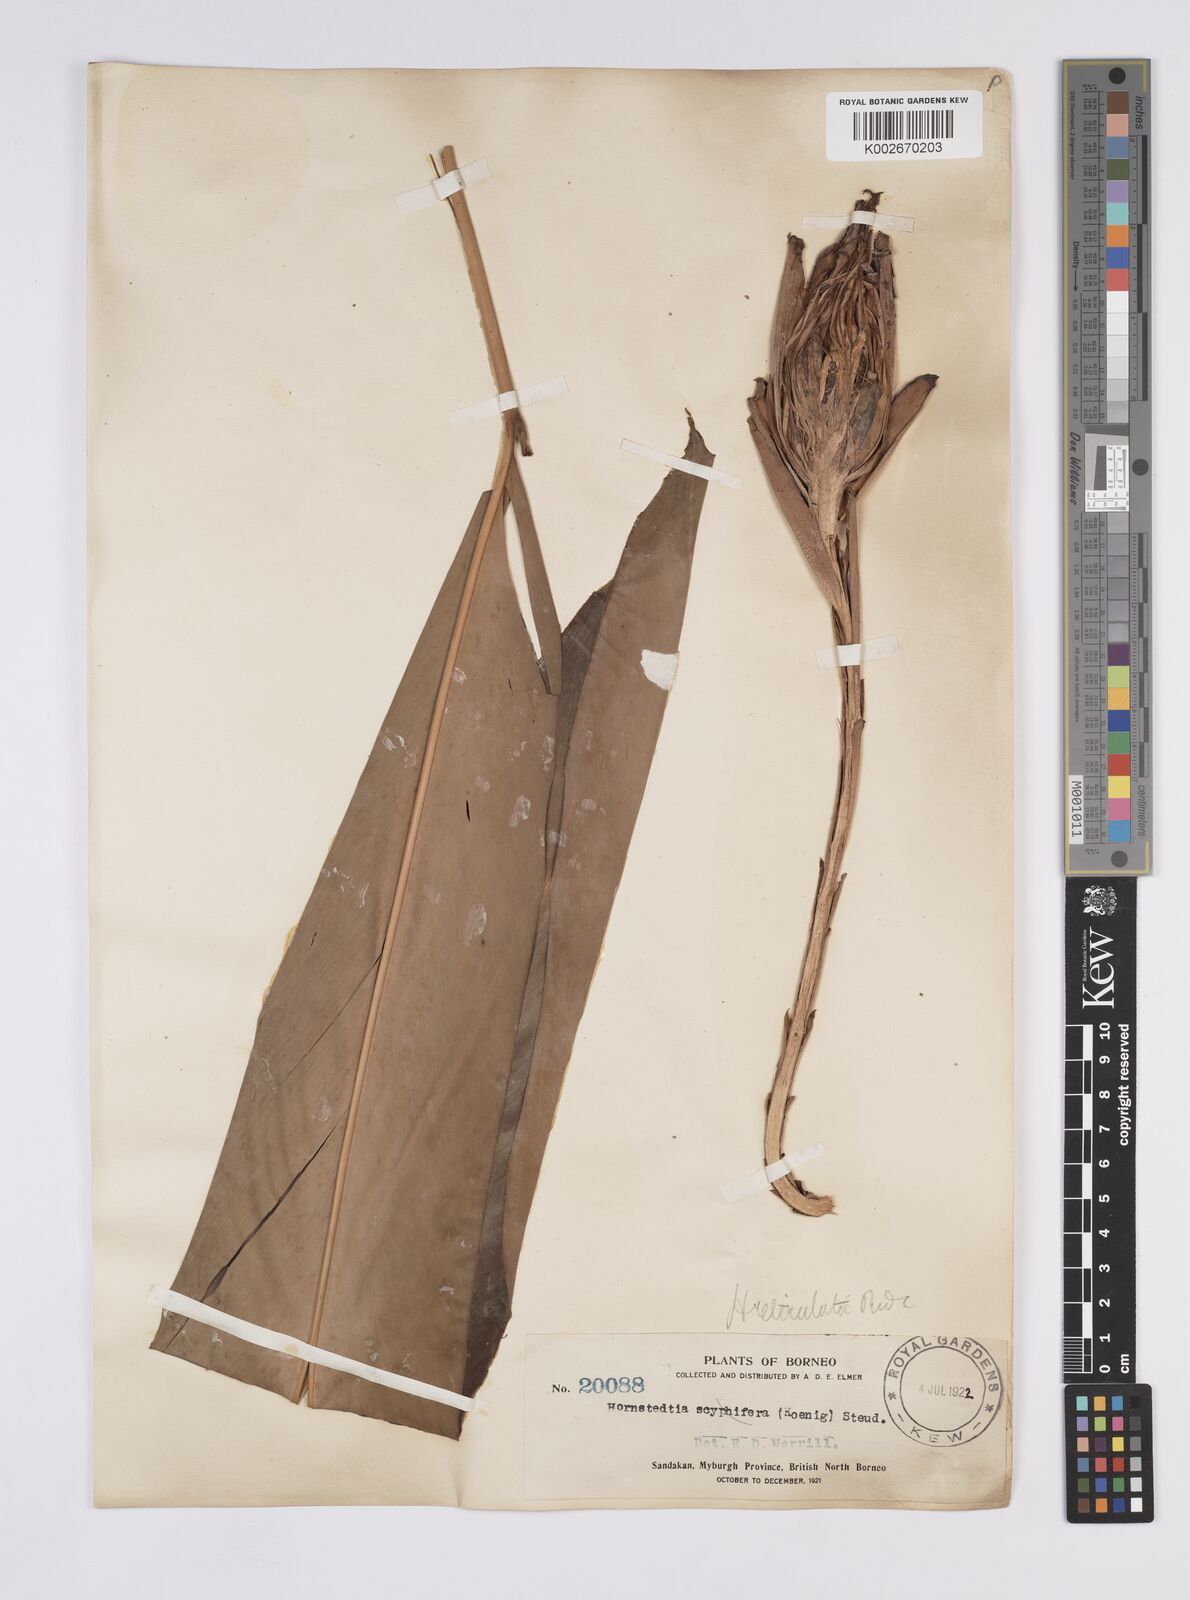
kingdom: Plantae
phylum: Tracheophyta
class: Liliopsida
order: Zingiberales
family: Zingiberaceae
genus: Hornstedtia
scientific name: Hornstedtia havilandii
